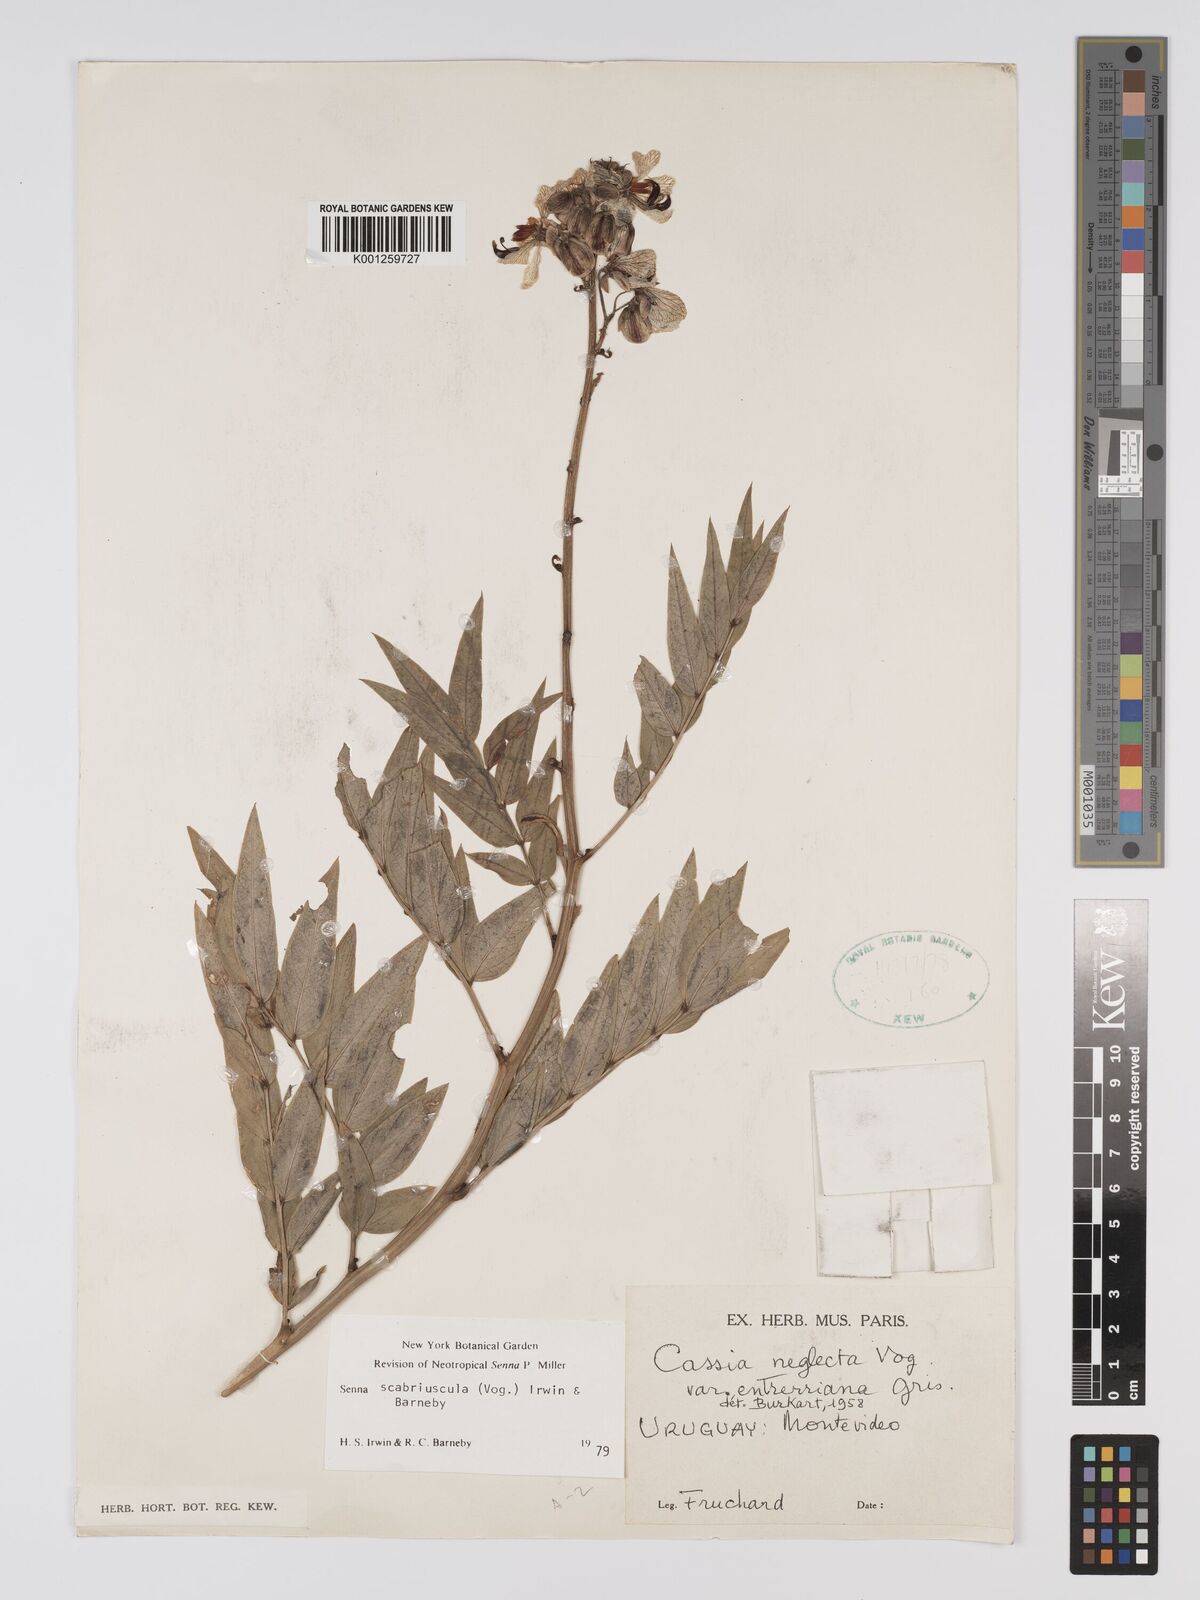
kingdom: Plantae
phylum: Tracheophyta
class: Magnoliopsida
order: Fabales
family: Fabaceae
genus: Senna
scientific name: Senna
